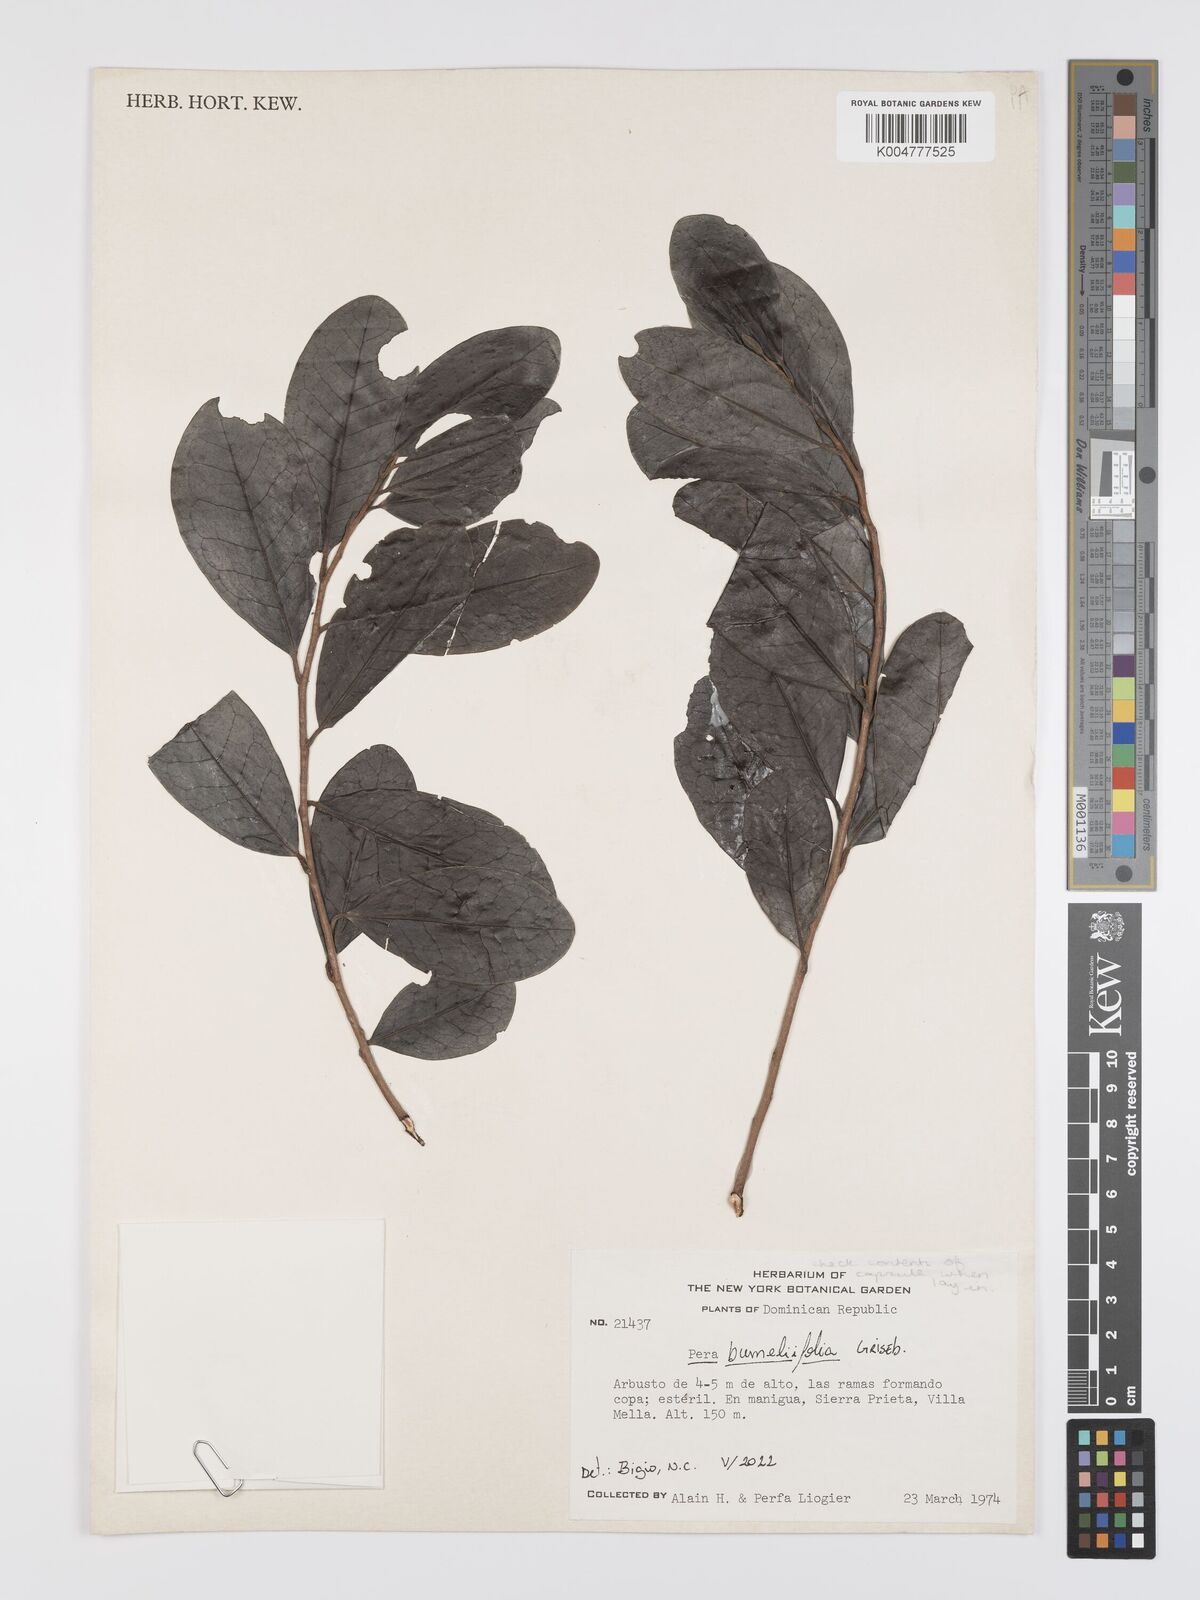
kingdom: Plantae
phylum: Tracheophyta
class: Magnoliopsida
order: Malpighiales
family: Peraceae
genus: Pera
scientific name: Pera
